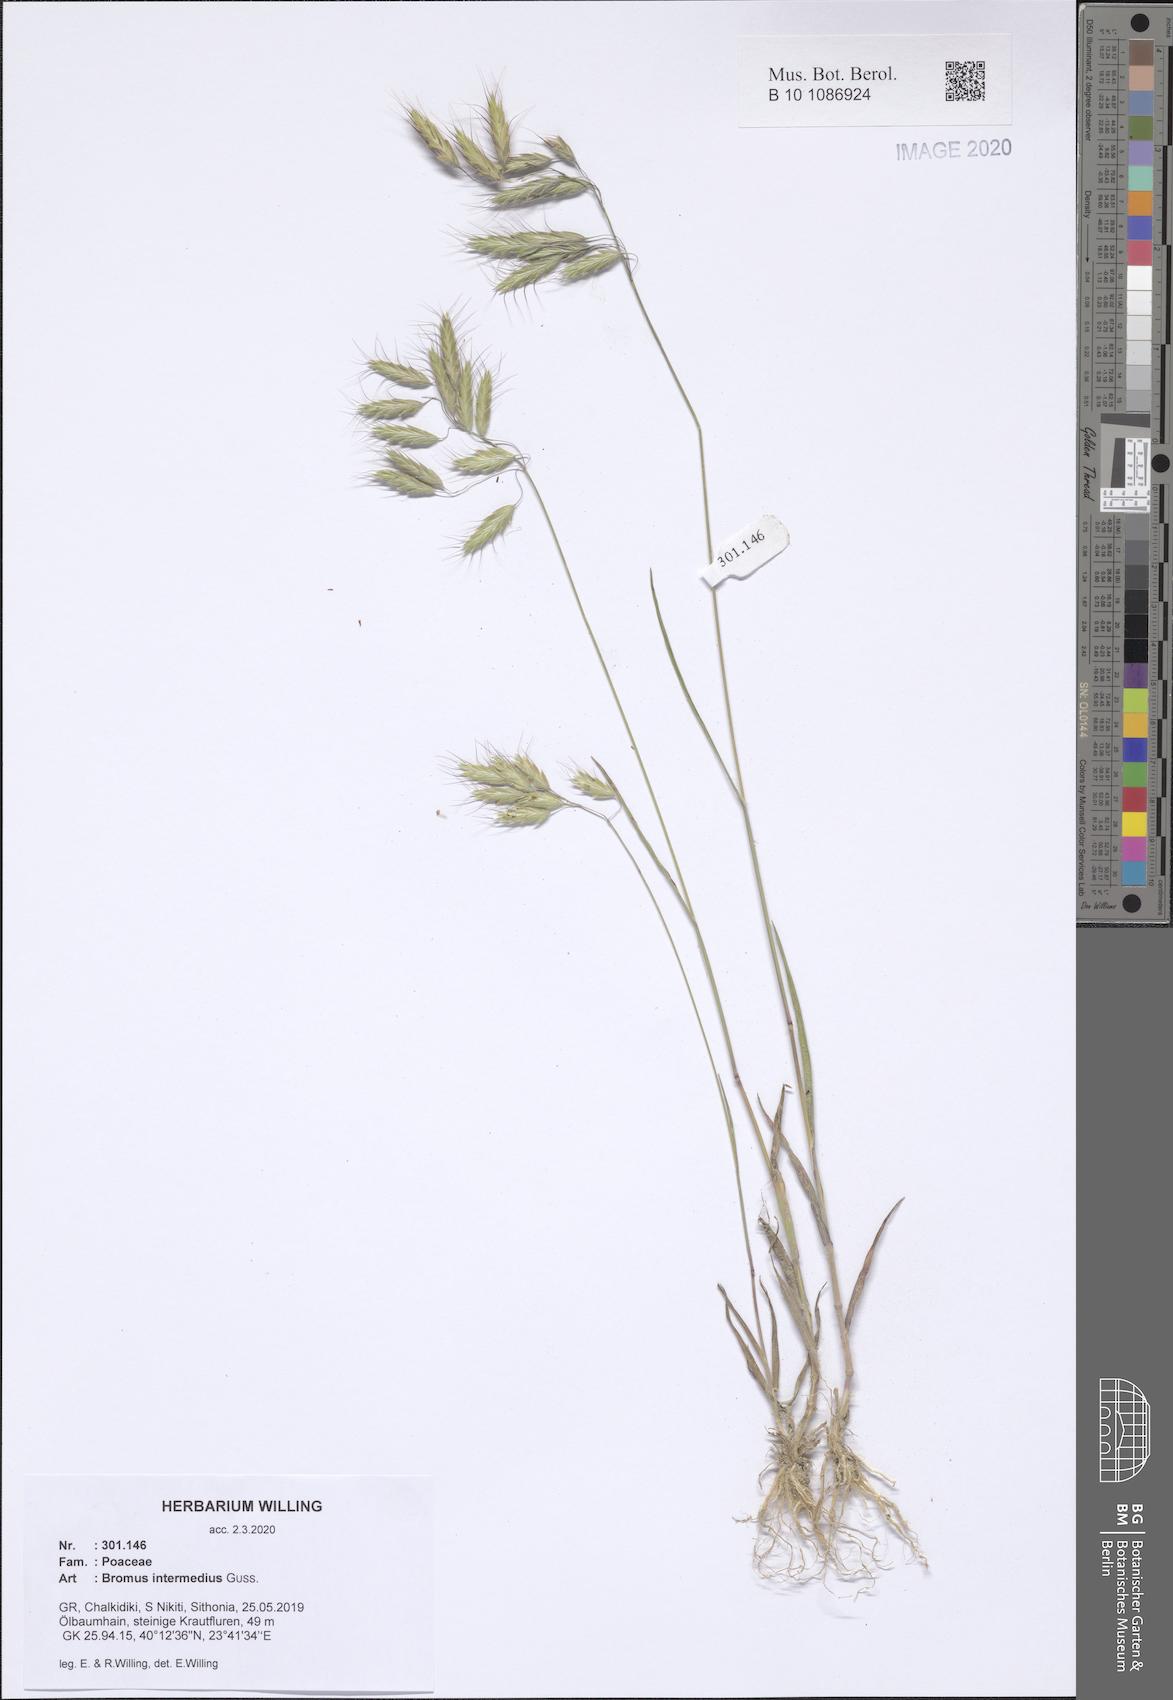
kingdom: Plantae
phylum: Tracheophyta
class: Liliopsida
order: Poales
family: Poaceae
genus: Bromus
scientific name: Bromus intermedius
